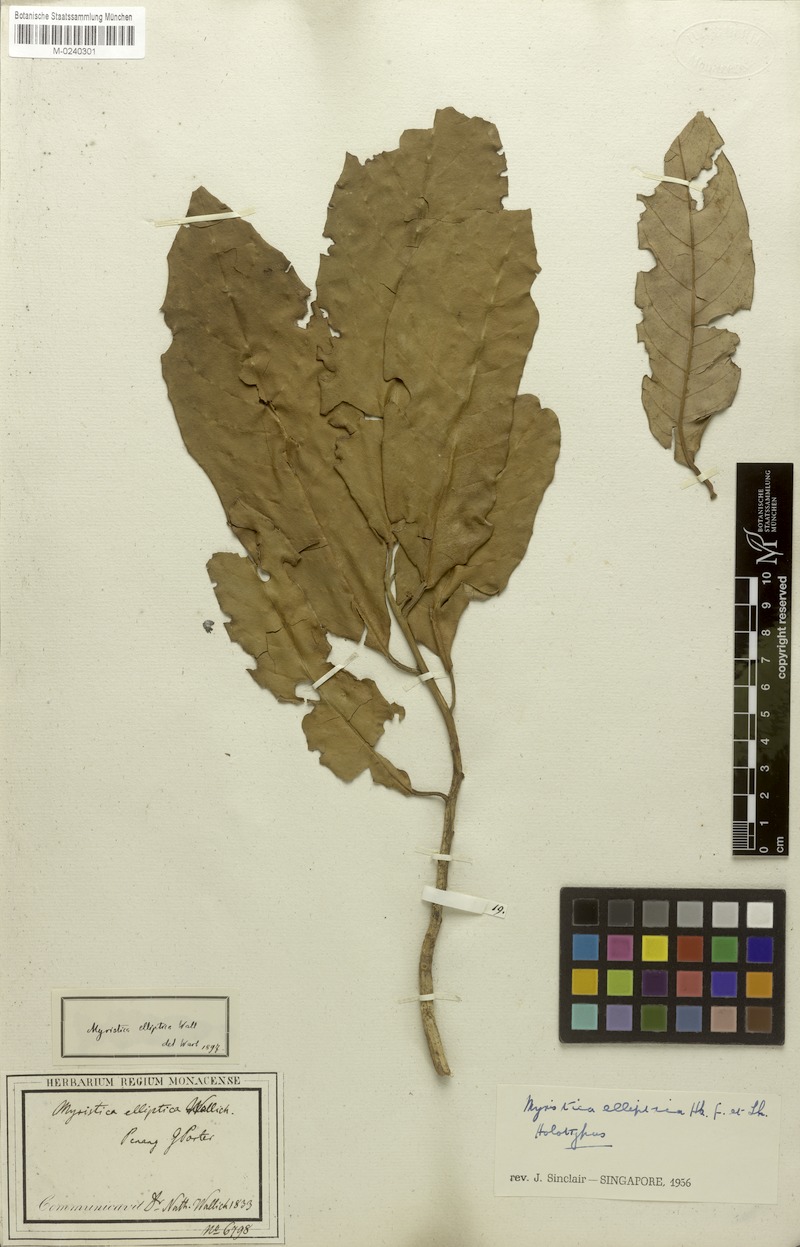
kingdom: Plantae
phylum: Tracheophyta
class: Magnoliopsida
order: Magnoliales
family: Myristicaceae
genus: Myristica
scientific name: Myristica elliptica
